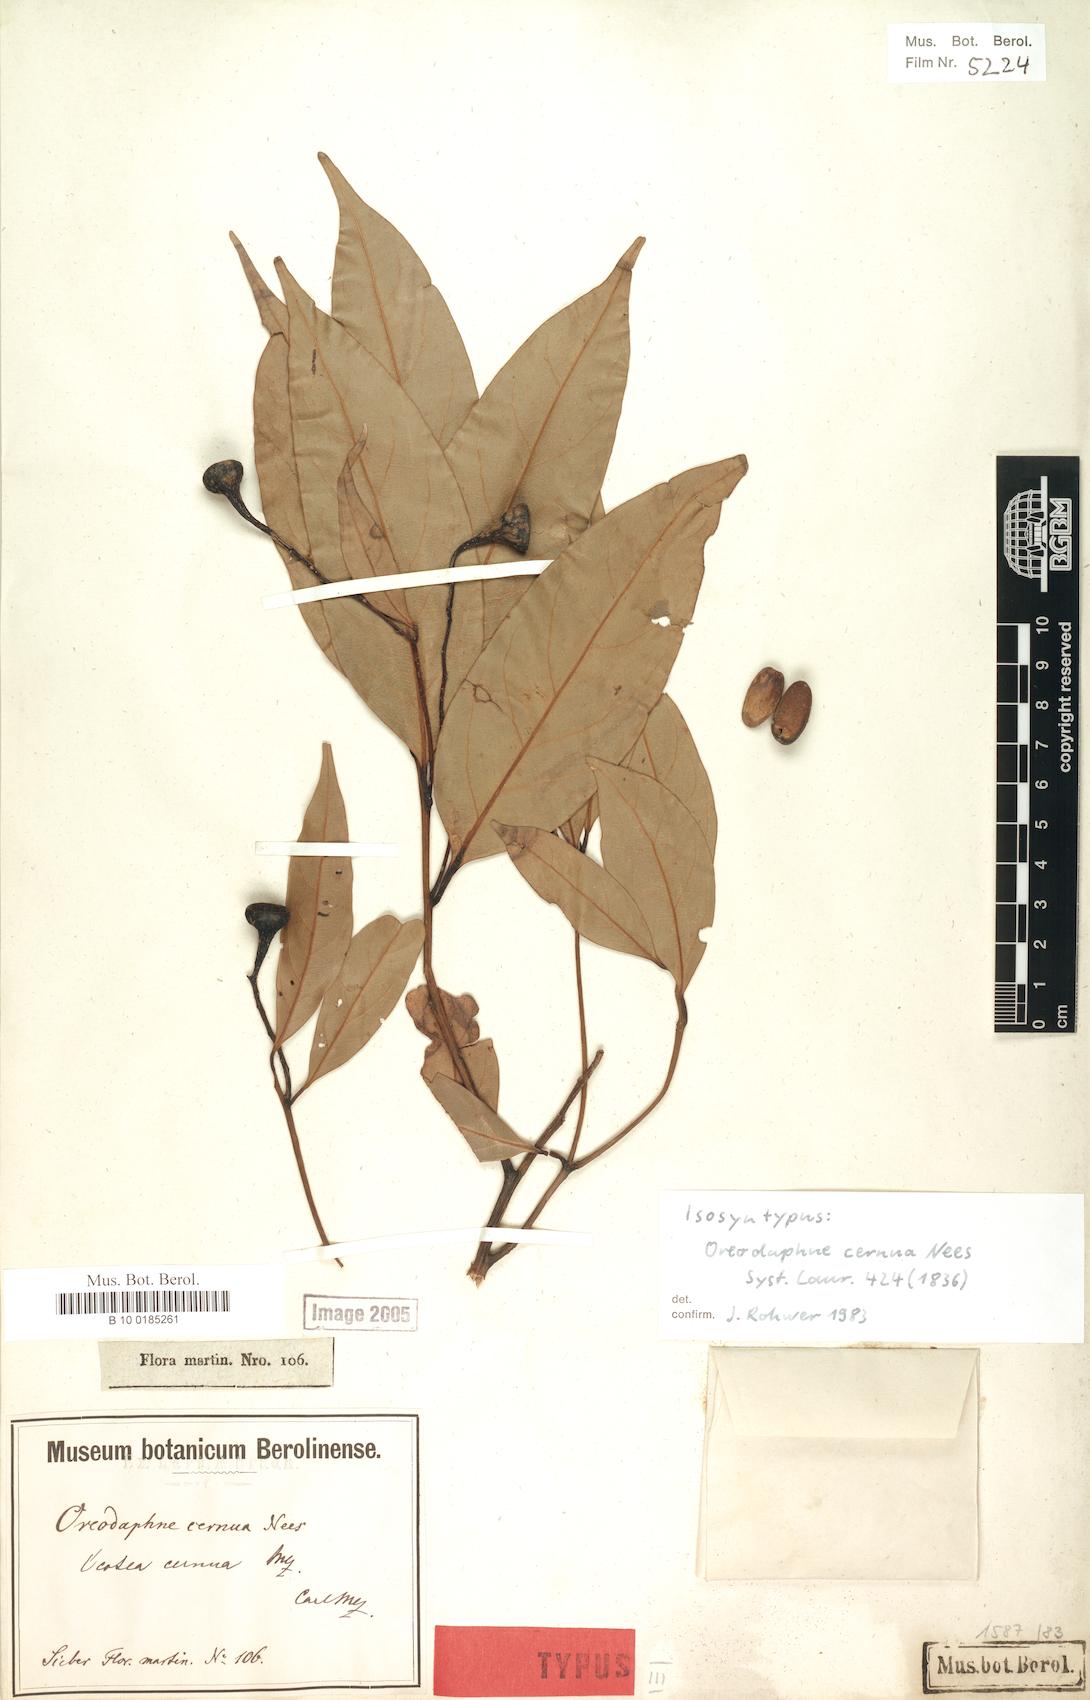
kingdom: Plantae
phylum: Tracheophyta
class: Magnoliopsida
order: Laurales
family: Lauraceae
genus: Ocotea
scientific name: Ocotea leptobotra
